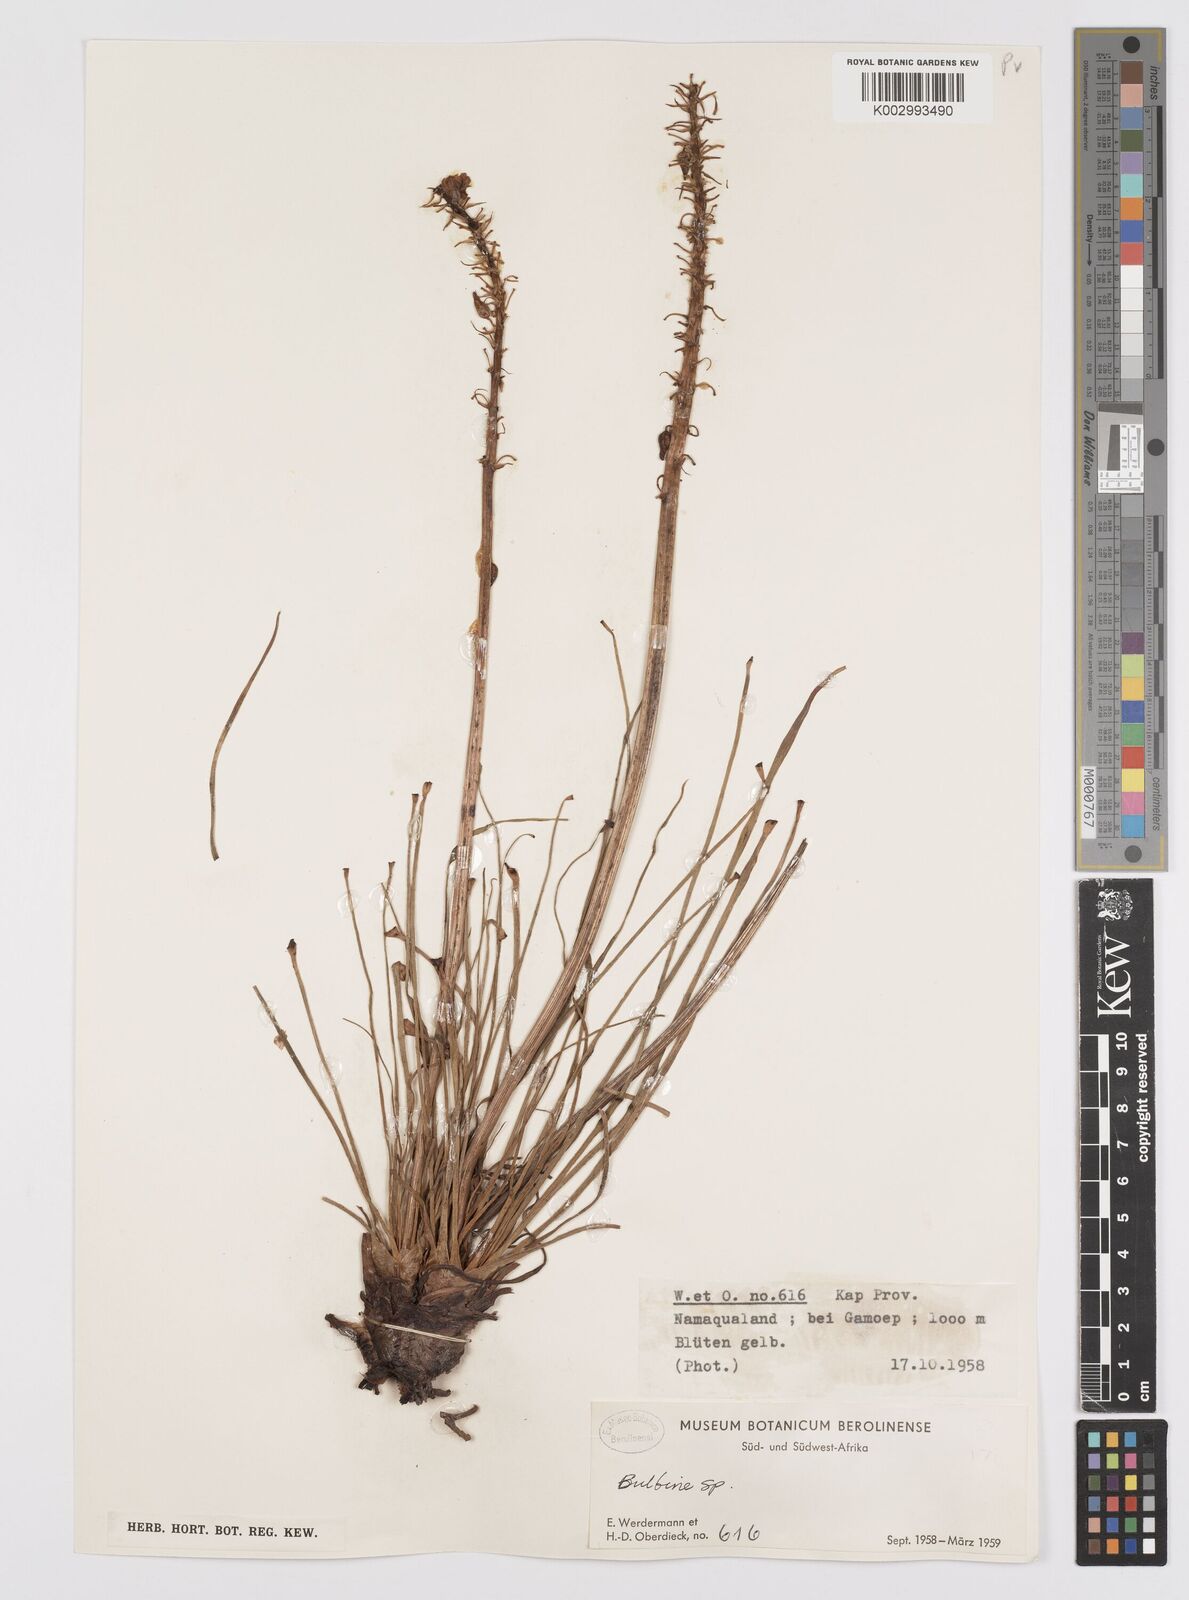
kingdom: Plantae
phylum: Tracheophyta
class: Liliopsida
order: Asparagales
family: Asphodelaceae
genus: Bulbine
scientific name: Bulbine abyssinica
